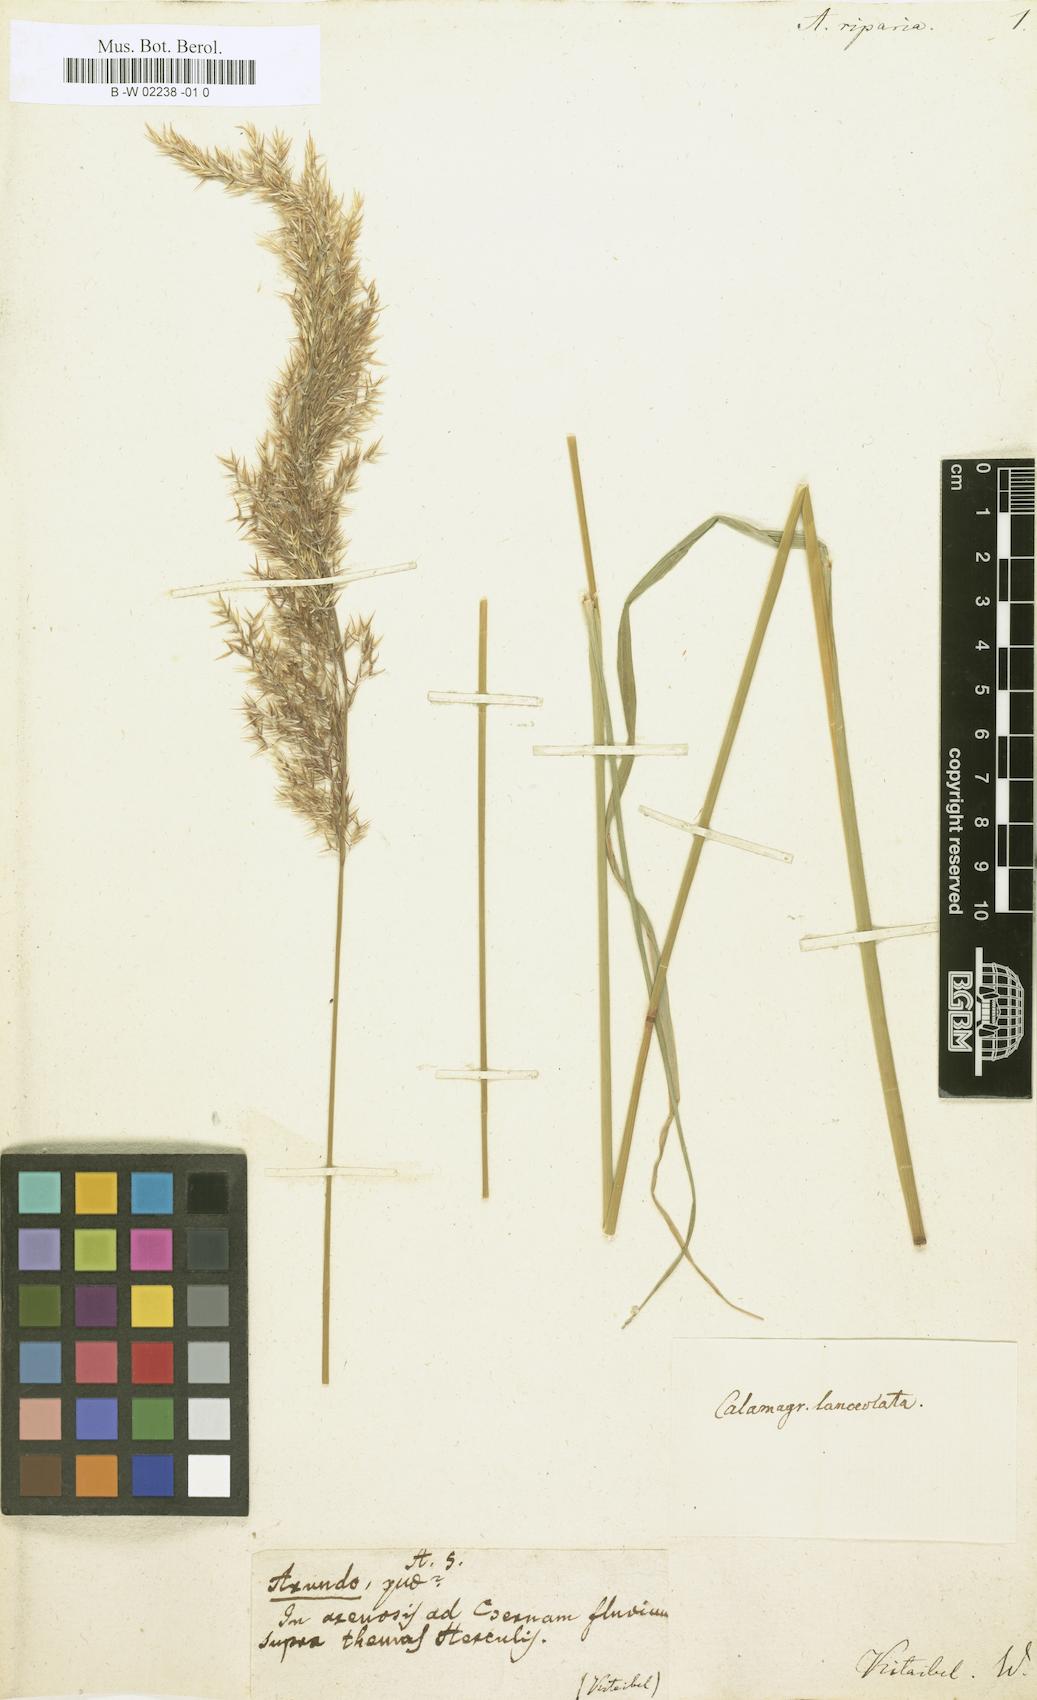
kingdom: Plantae
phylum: Tracheophyta
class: Liliopsida
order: Poales
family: Poaceae
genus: Calamagrostis
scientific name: Calamagrostis canescens
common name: Purple small-reed
